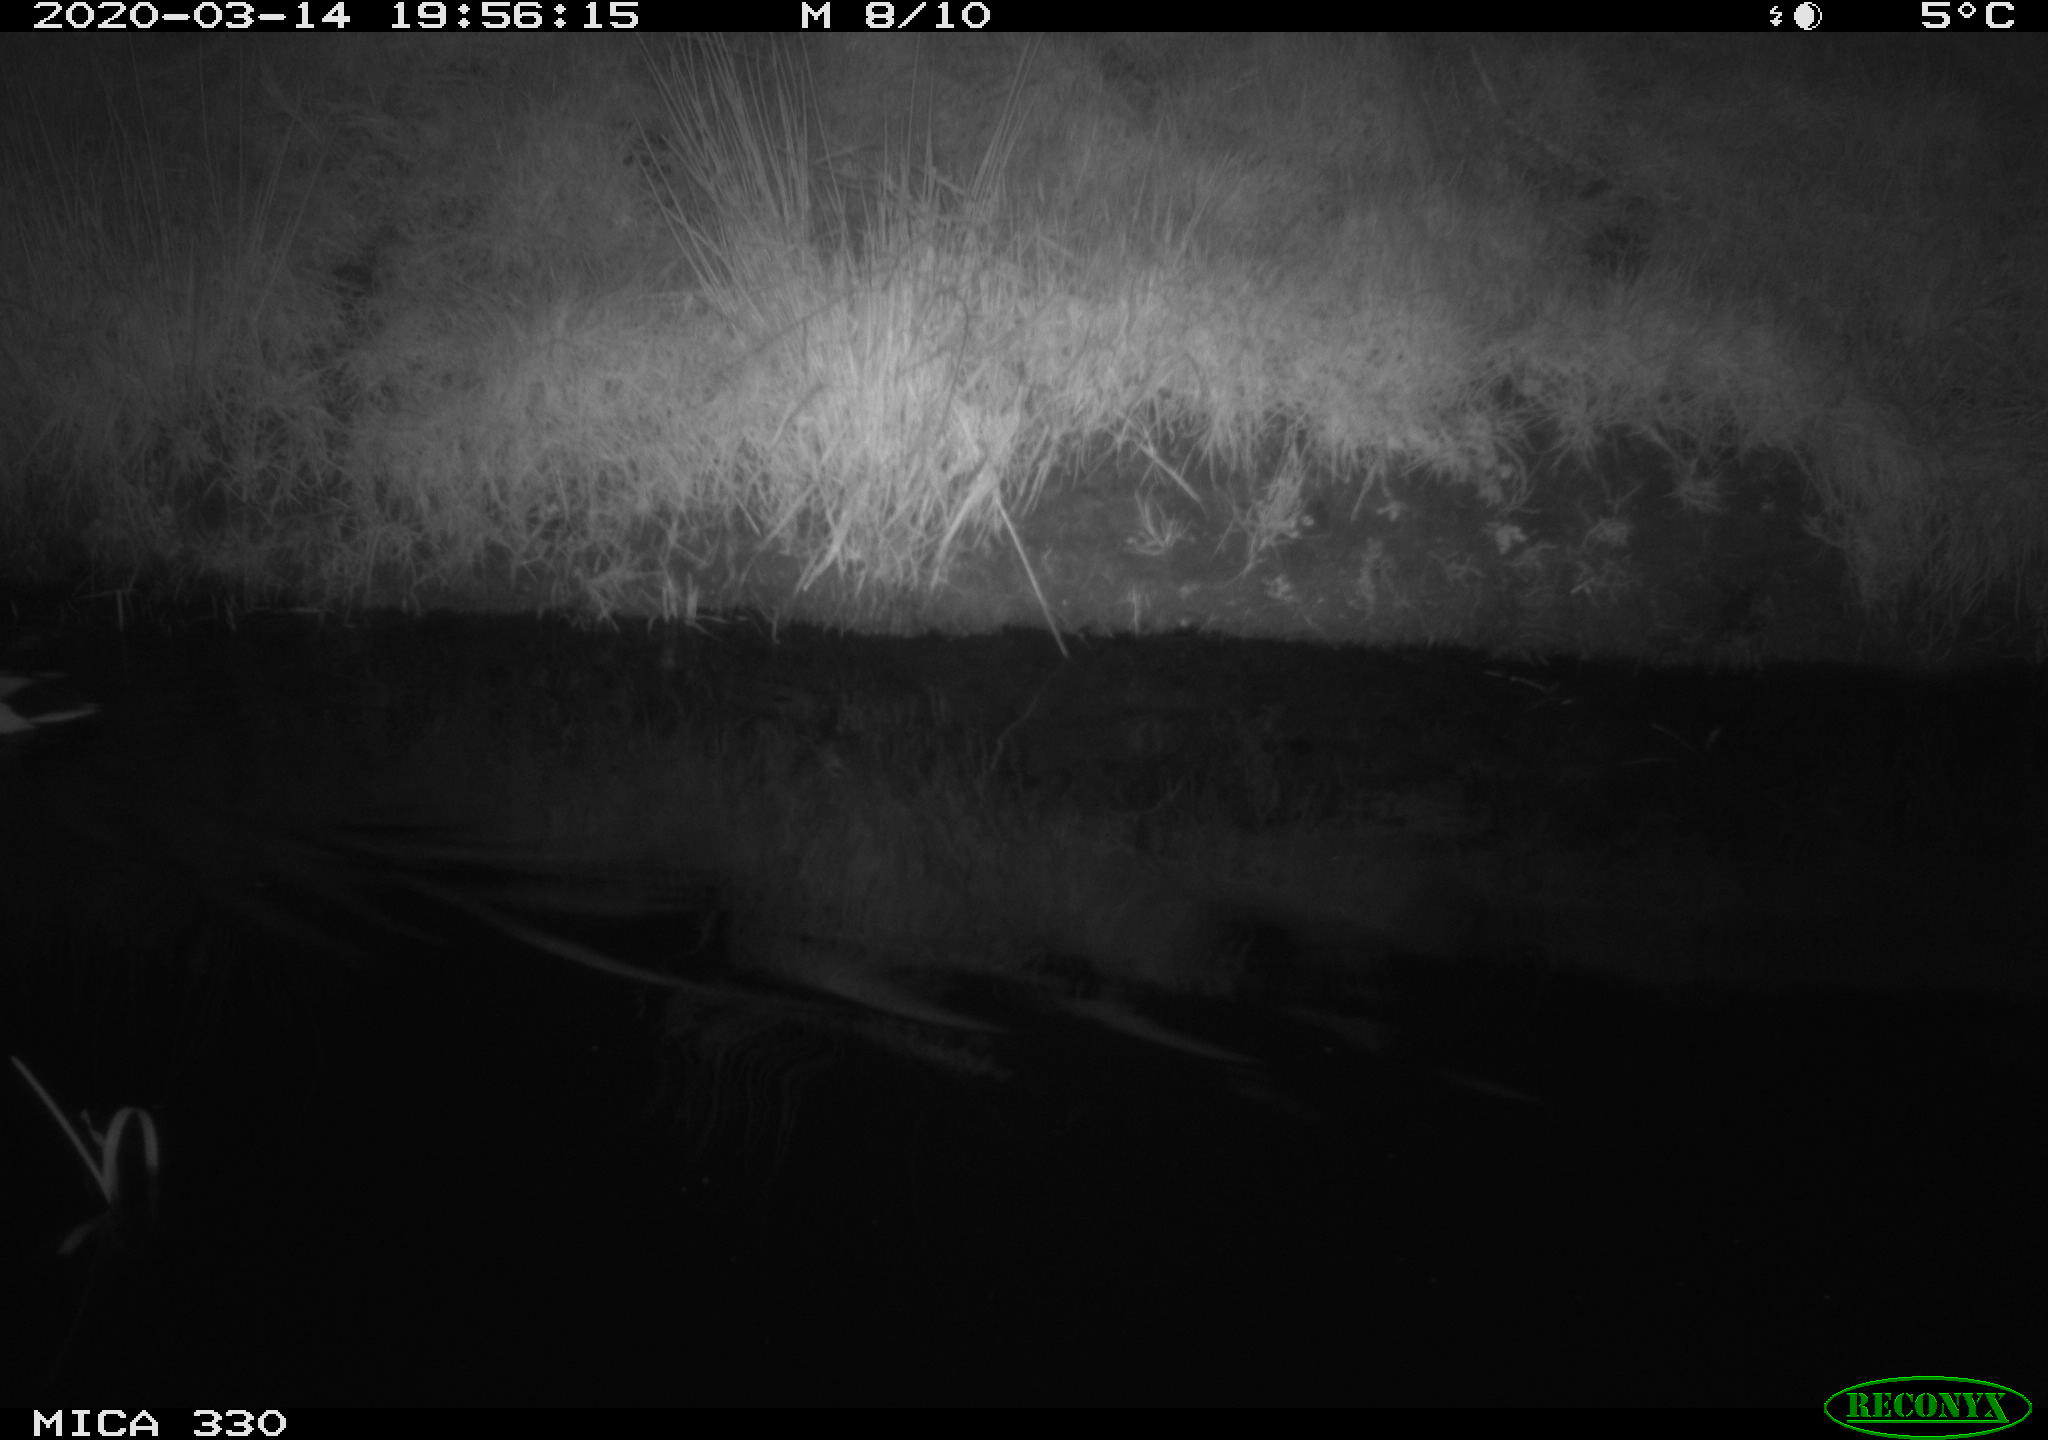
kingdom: Animalia
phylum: Chordata
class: Aves
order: Anseriformes
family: Anatidae
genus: Anas
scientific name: Anas platyrhynchos
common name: Mallard
